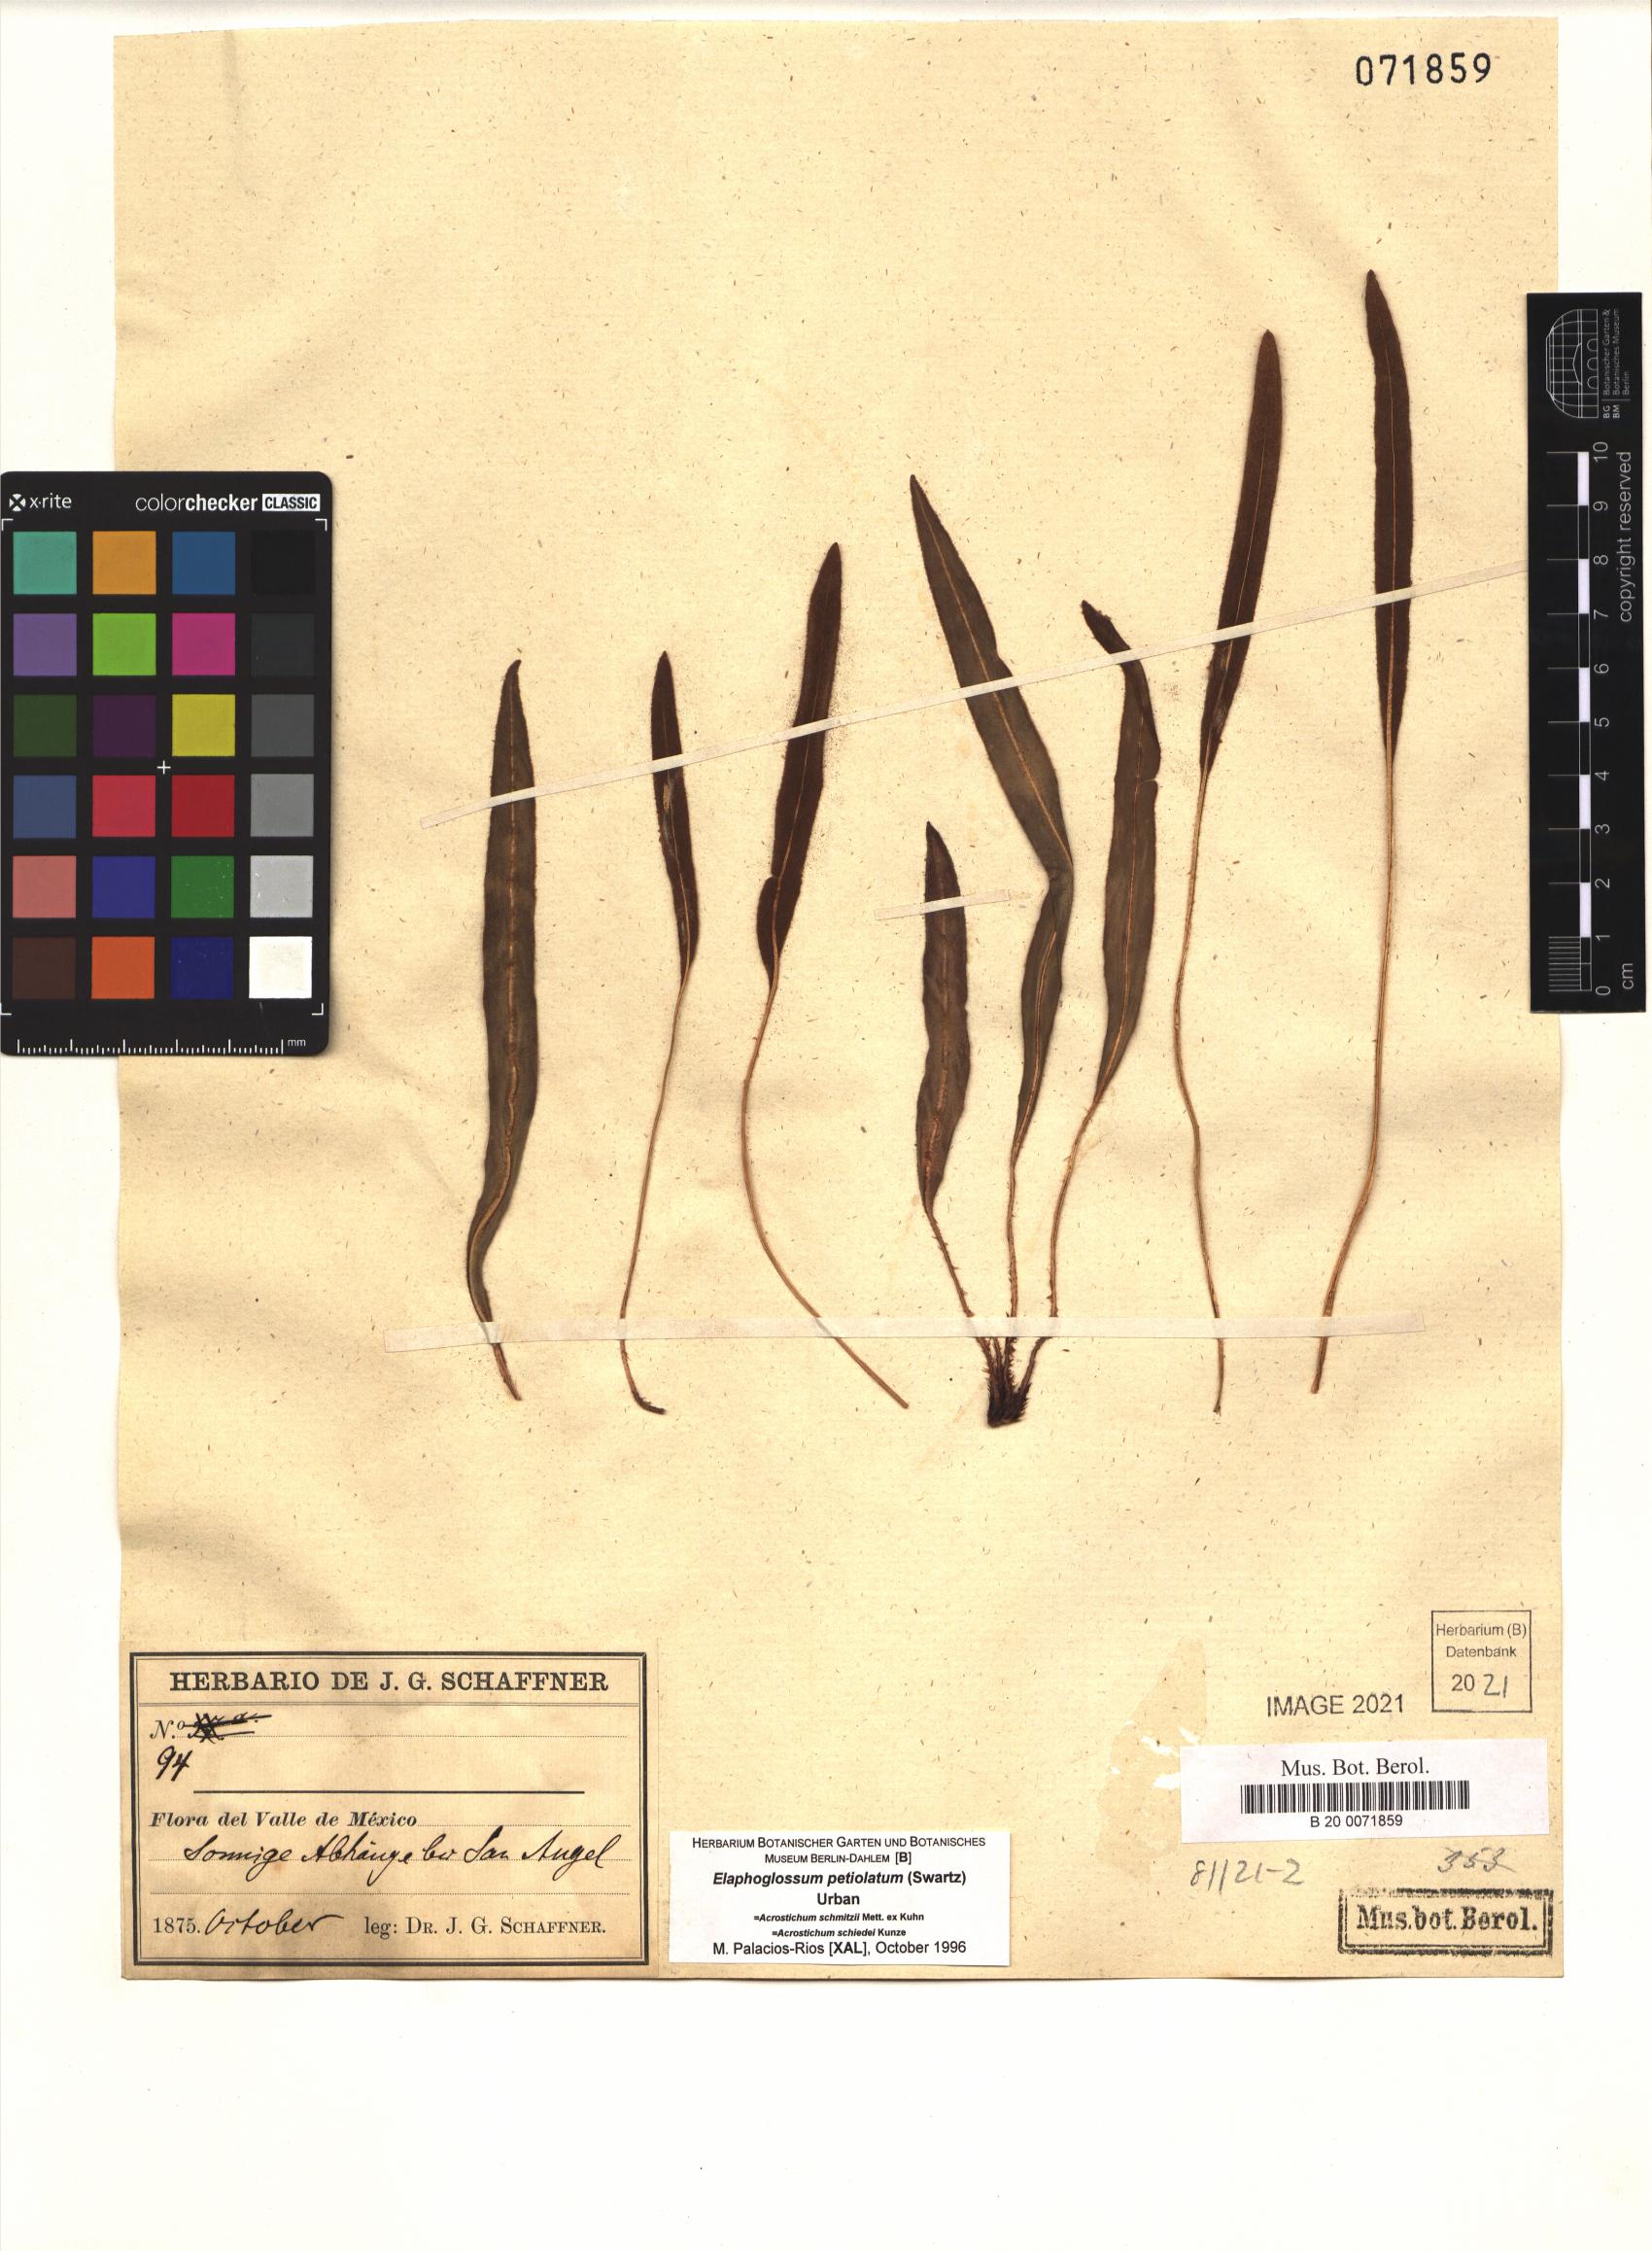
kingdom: Plantae
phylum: Tracheophyta
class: Polypodiopsida
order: Polypodiales
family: Dryopteridaceae
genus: Elaphoglossum
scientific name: Elaphoglossum petiolatum
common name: Graceful tonguefern
